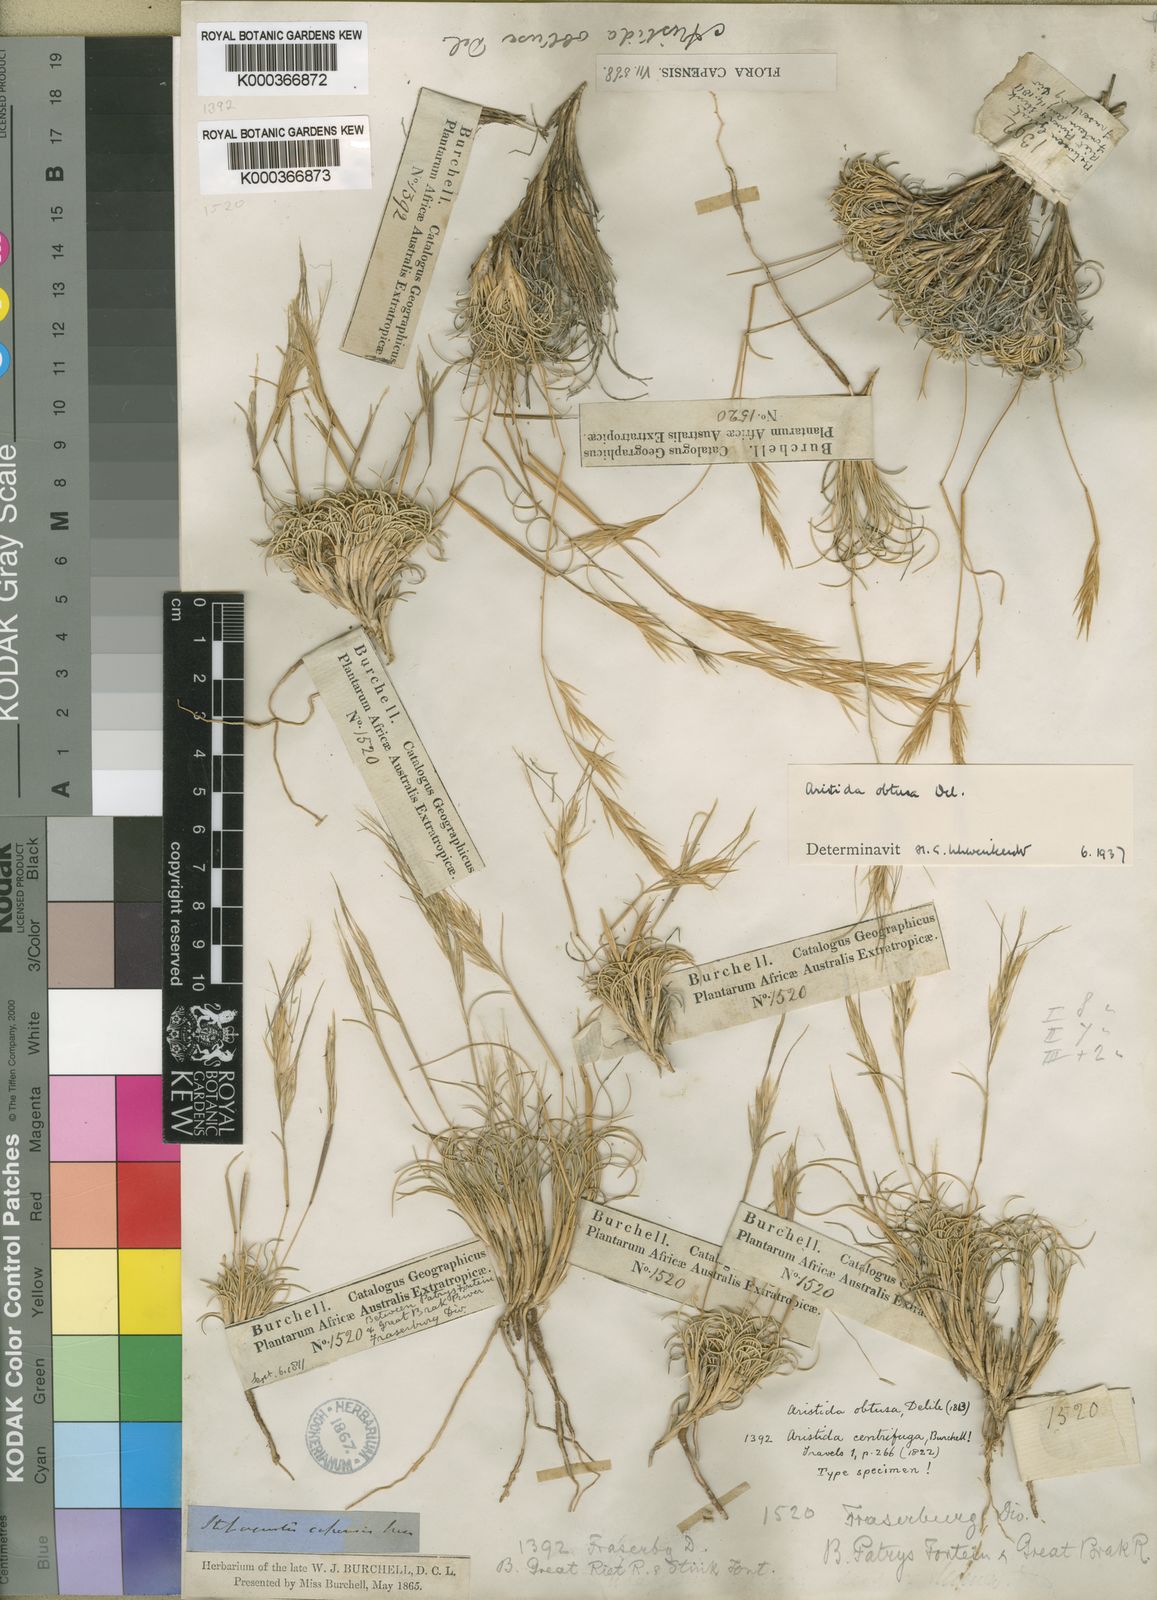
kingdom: Plantae
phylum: Tracheophyta
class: Liliopsida
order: Poales
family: Poaceae
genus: Stipagrostis
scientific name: Stipagrostis obtusa
